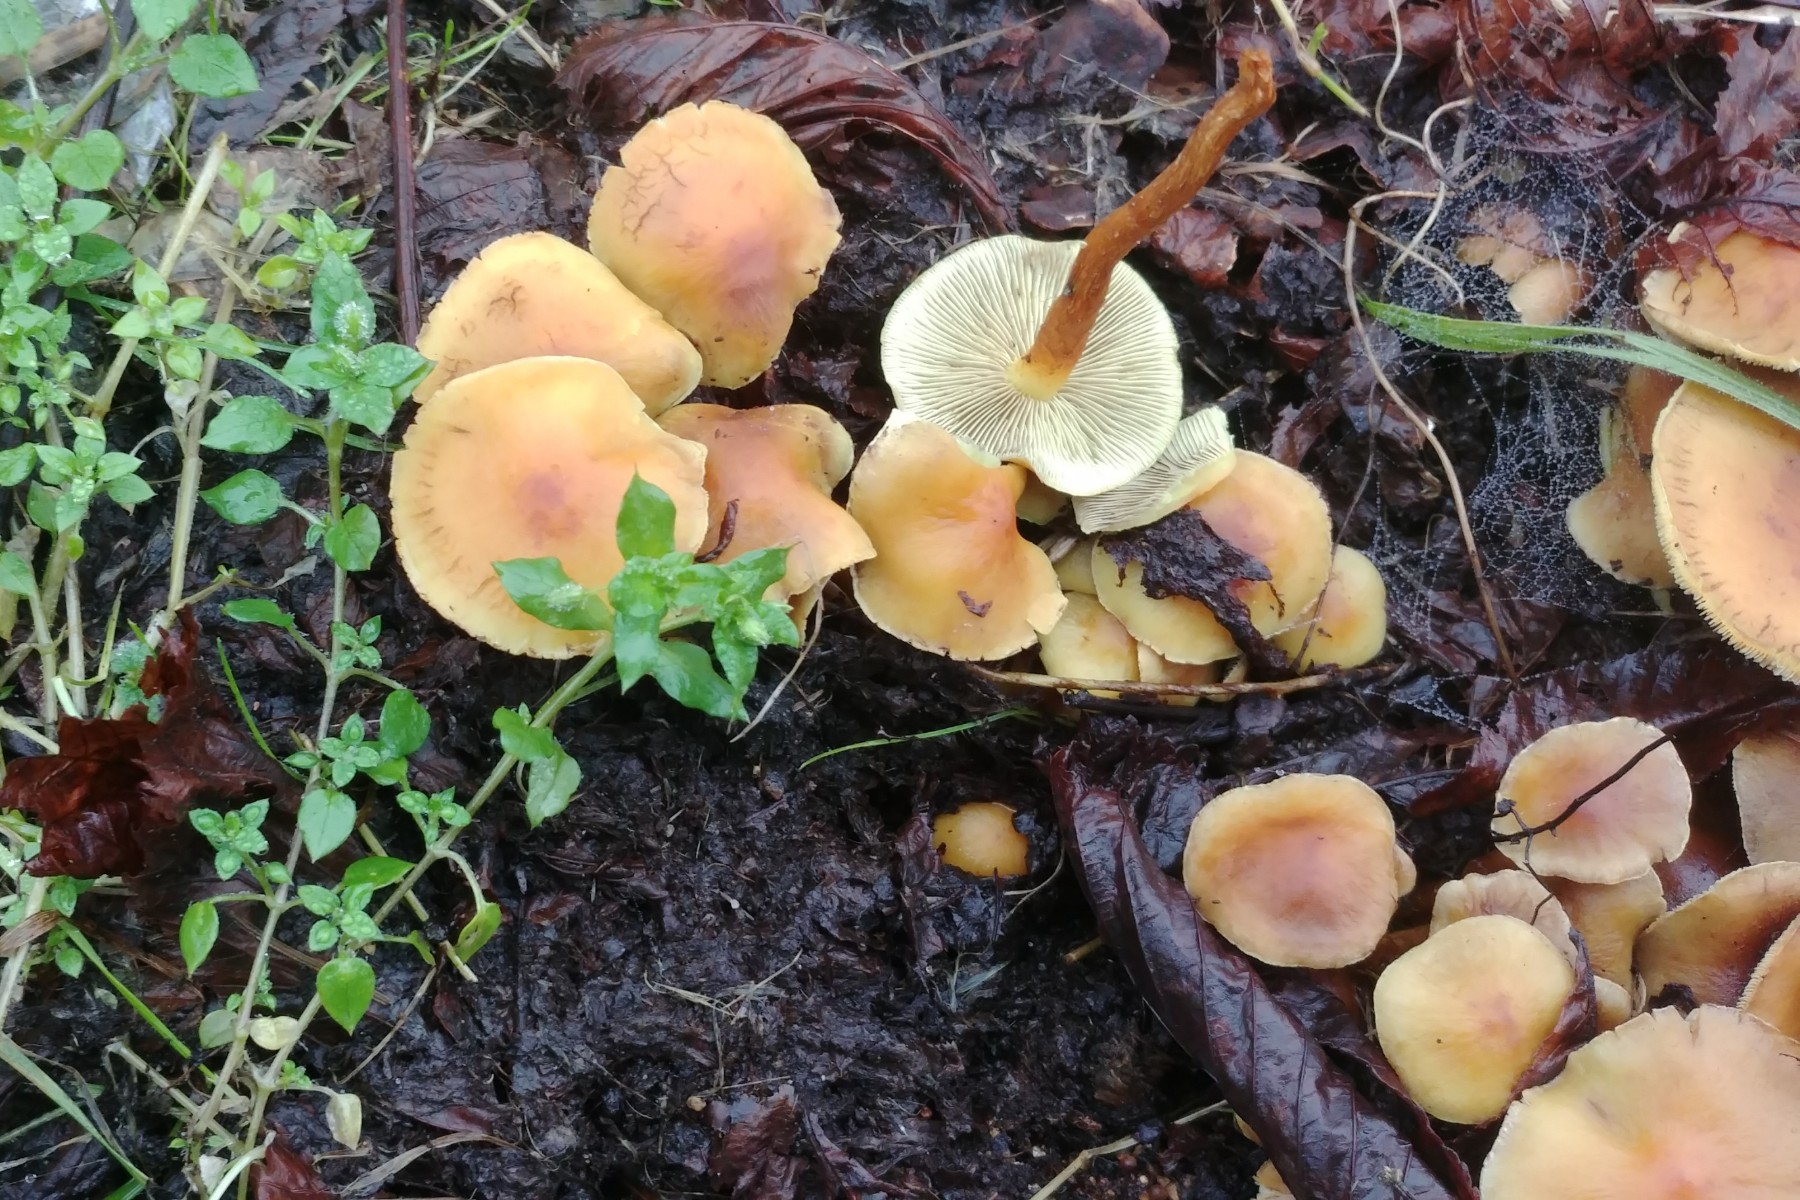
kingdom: Fungi
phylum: Basidiomycota
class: Agaricomycetes
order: Agaricales
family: Strophariaceae
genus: Hypholoma
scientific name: Hypholoma fasciculare
